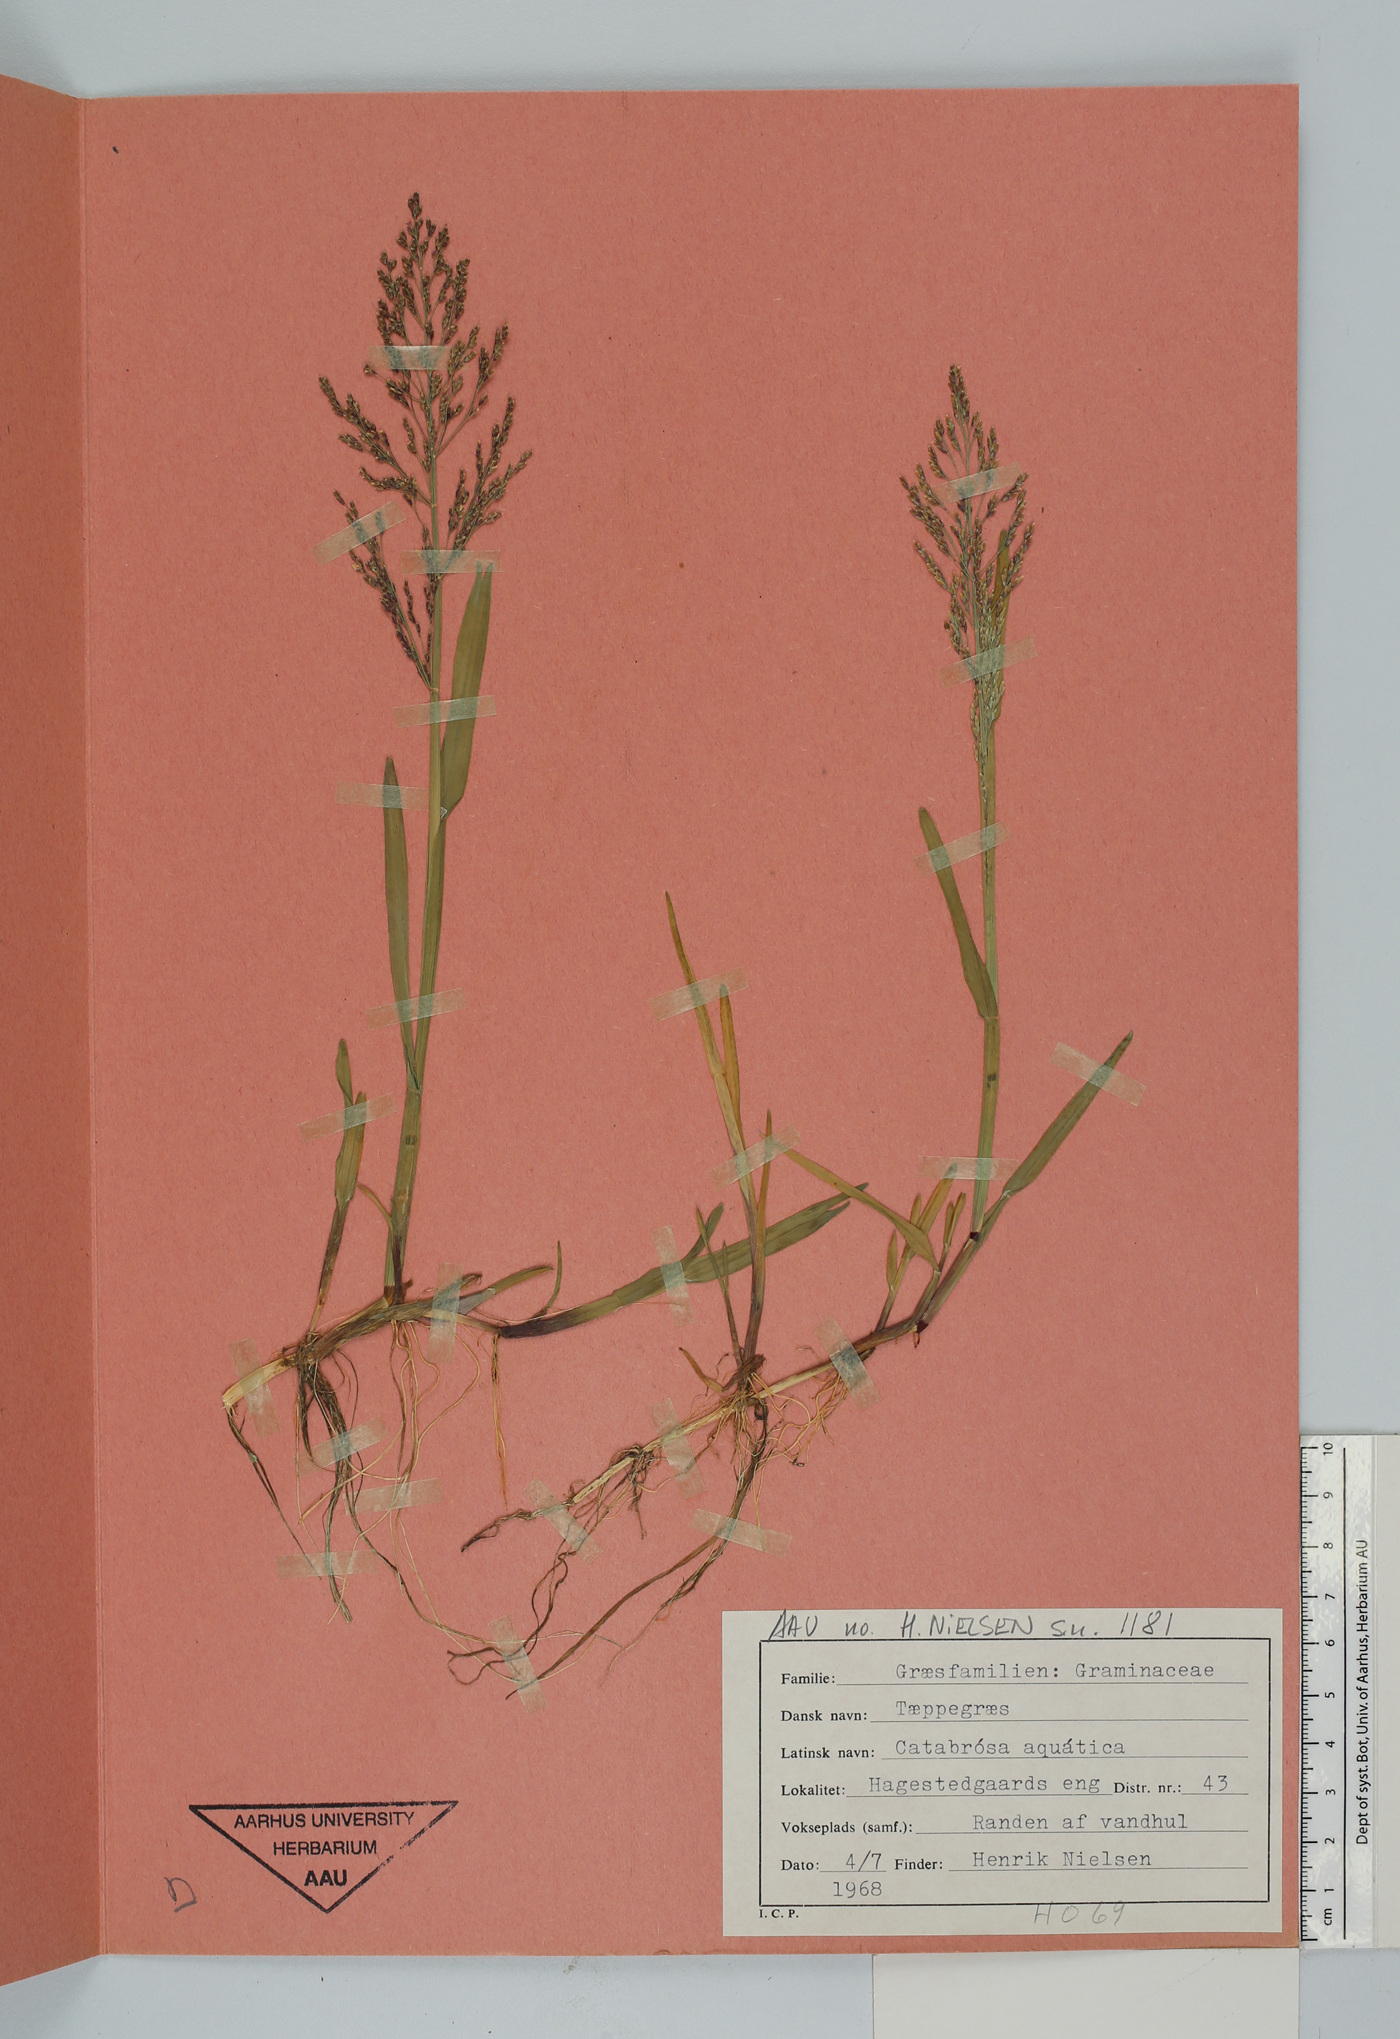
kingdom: Plantae
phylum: Tracheophyta
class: Liliopsida
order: Poales
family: Poaceae
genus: Catabrosa
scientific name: Catabrosa aquatica
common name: Whorl-grass
